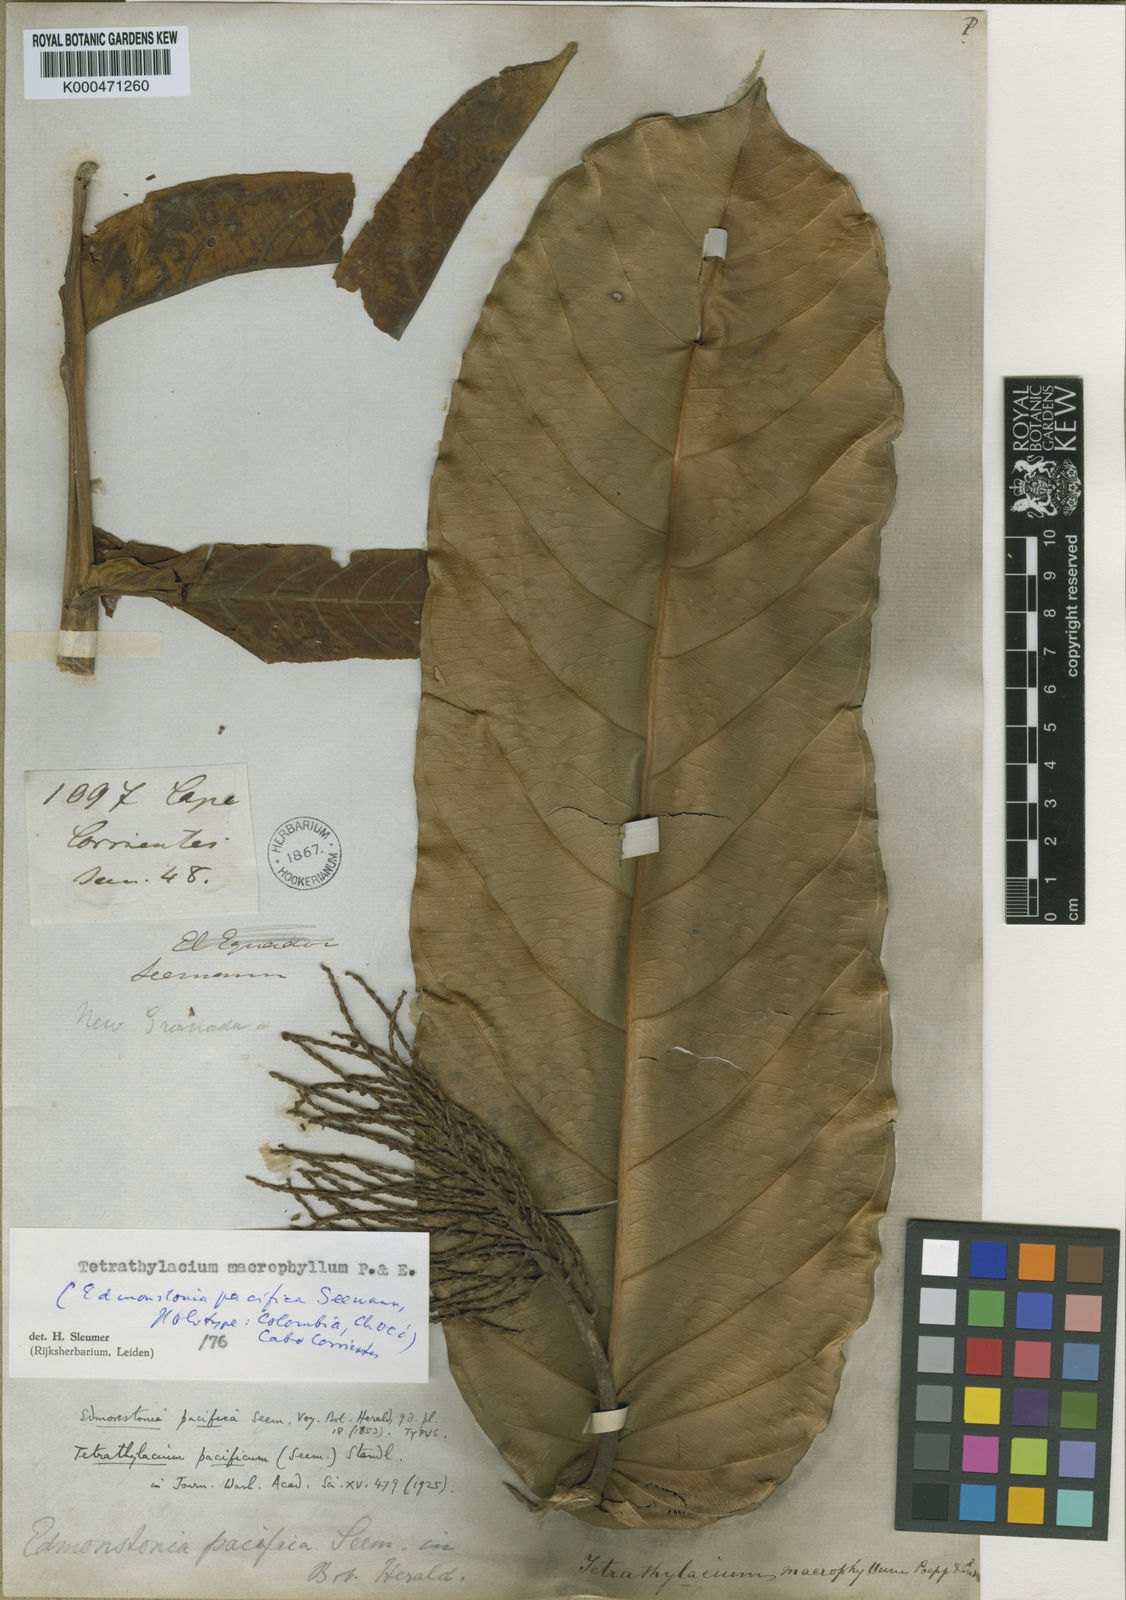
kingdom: Plantae
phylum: Tracheophyta
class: Magnoliopsida
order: Malpighiales
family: Salicaceae
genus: Tetrathylacium
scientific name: Tetrathylacium macrophyllum
